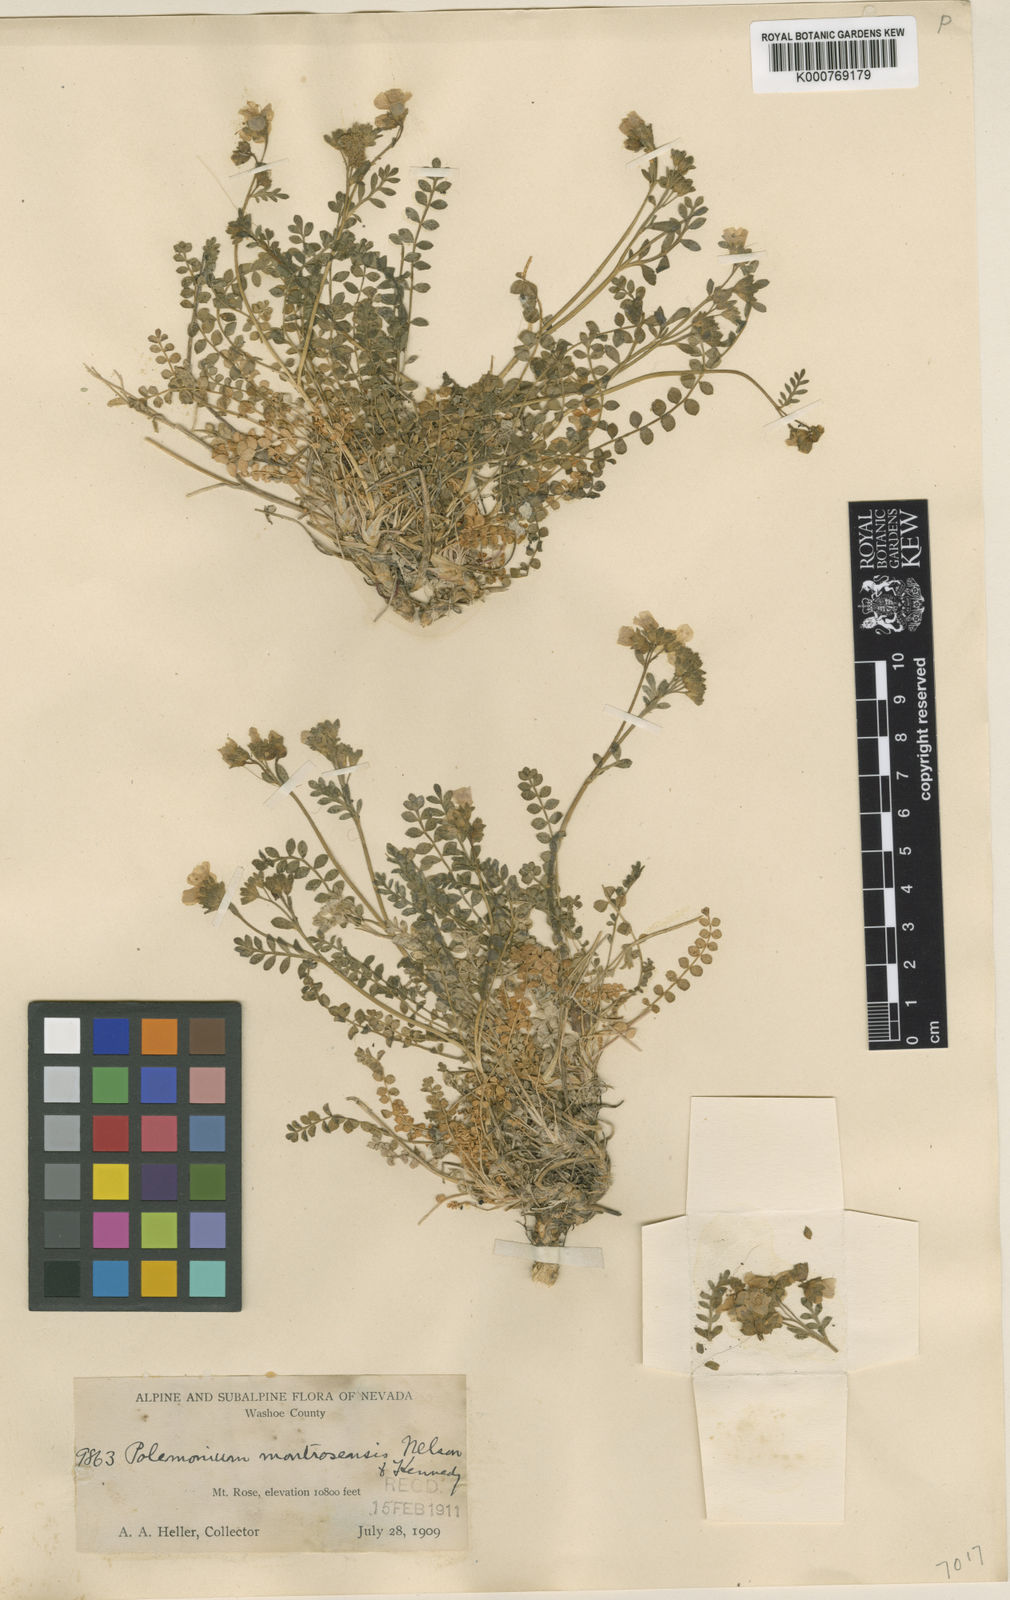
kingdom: Plantae
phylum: Tracheophyta
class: Magnoliopsida
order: Ericales
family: Polemoniaceae
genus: Polemonium
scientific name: Polemonium
